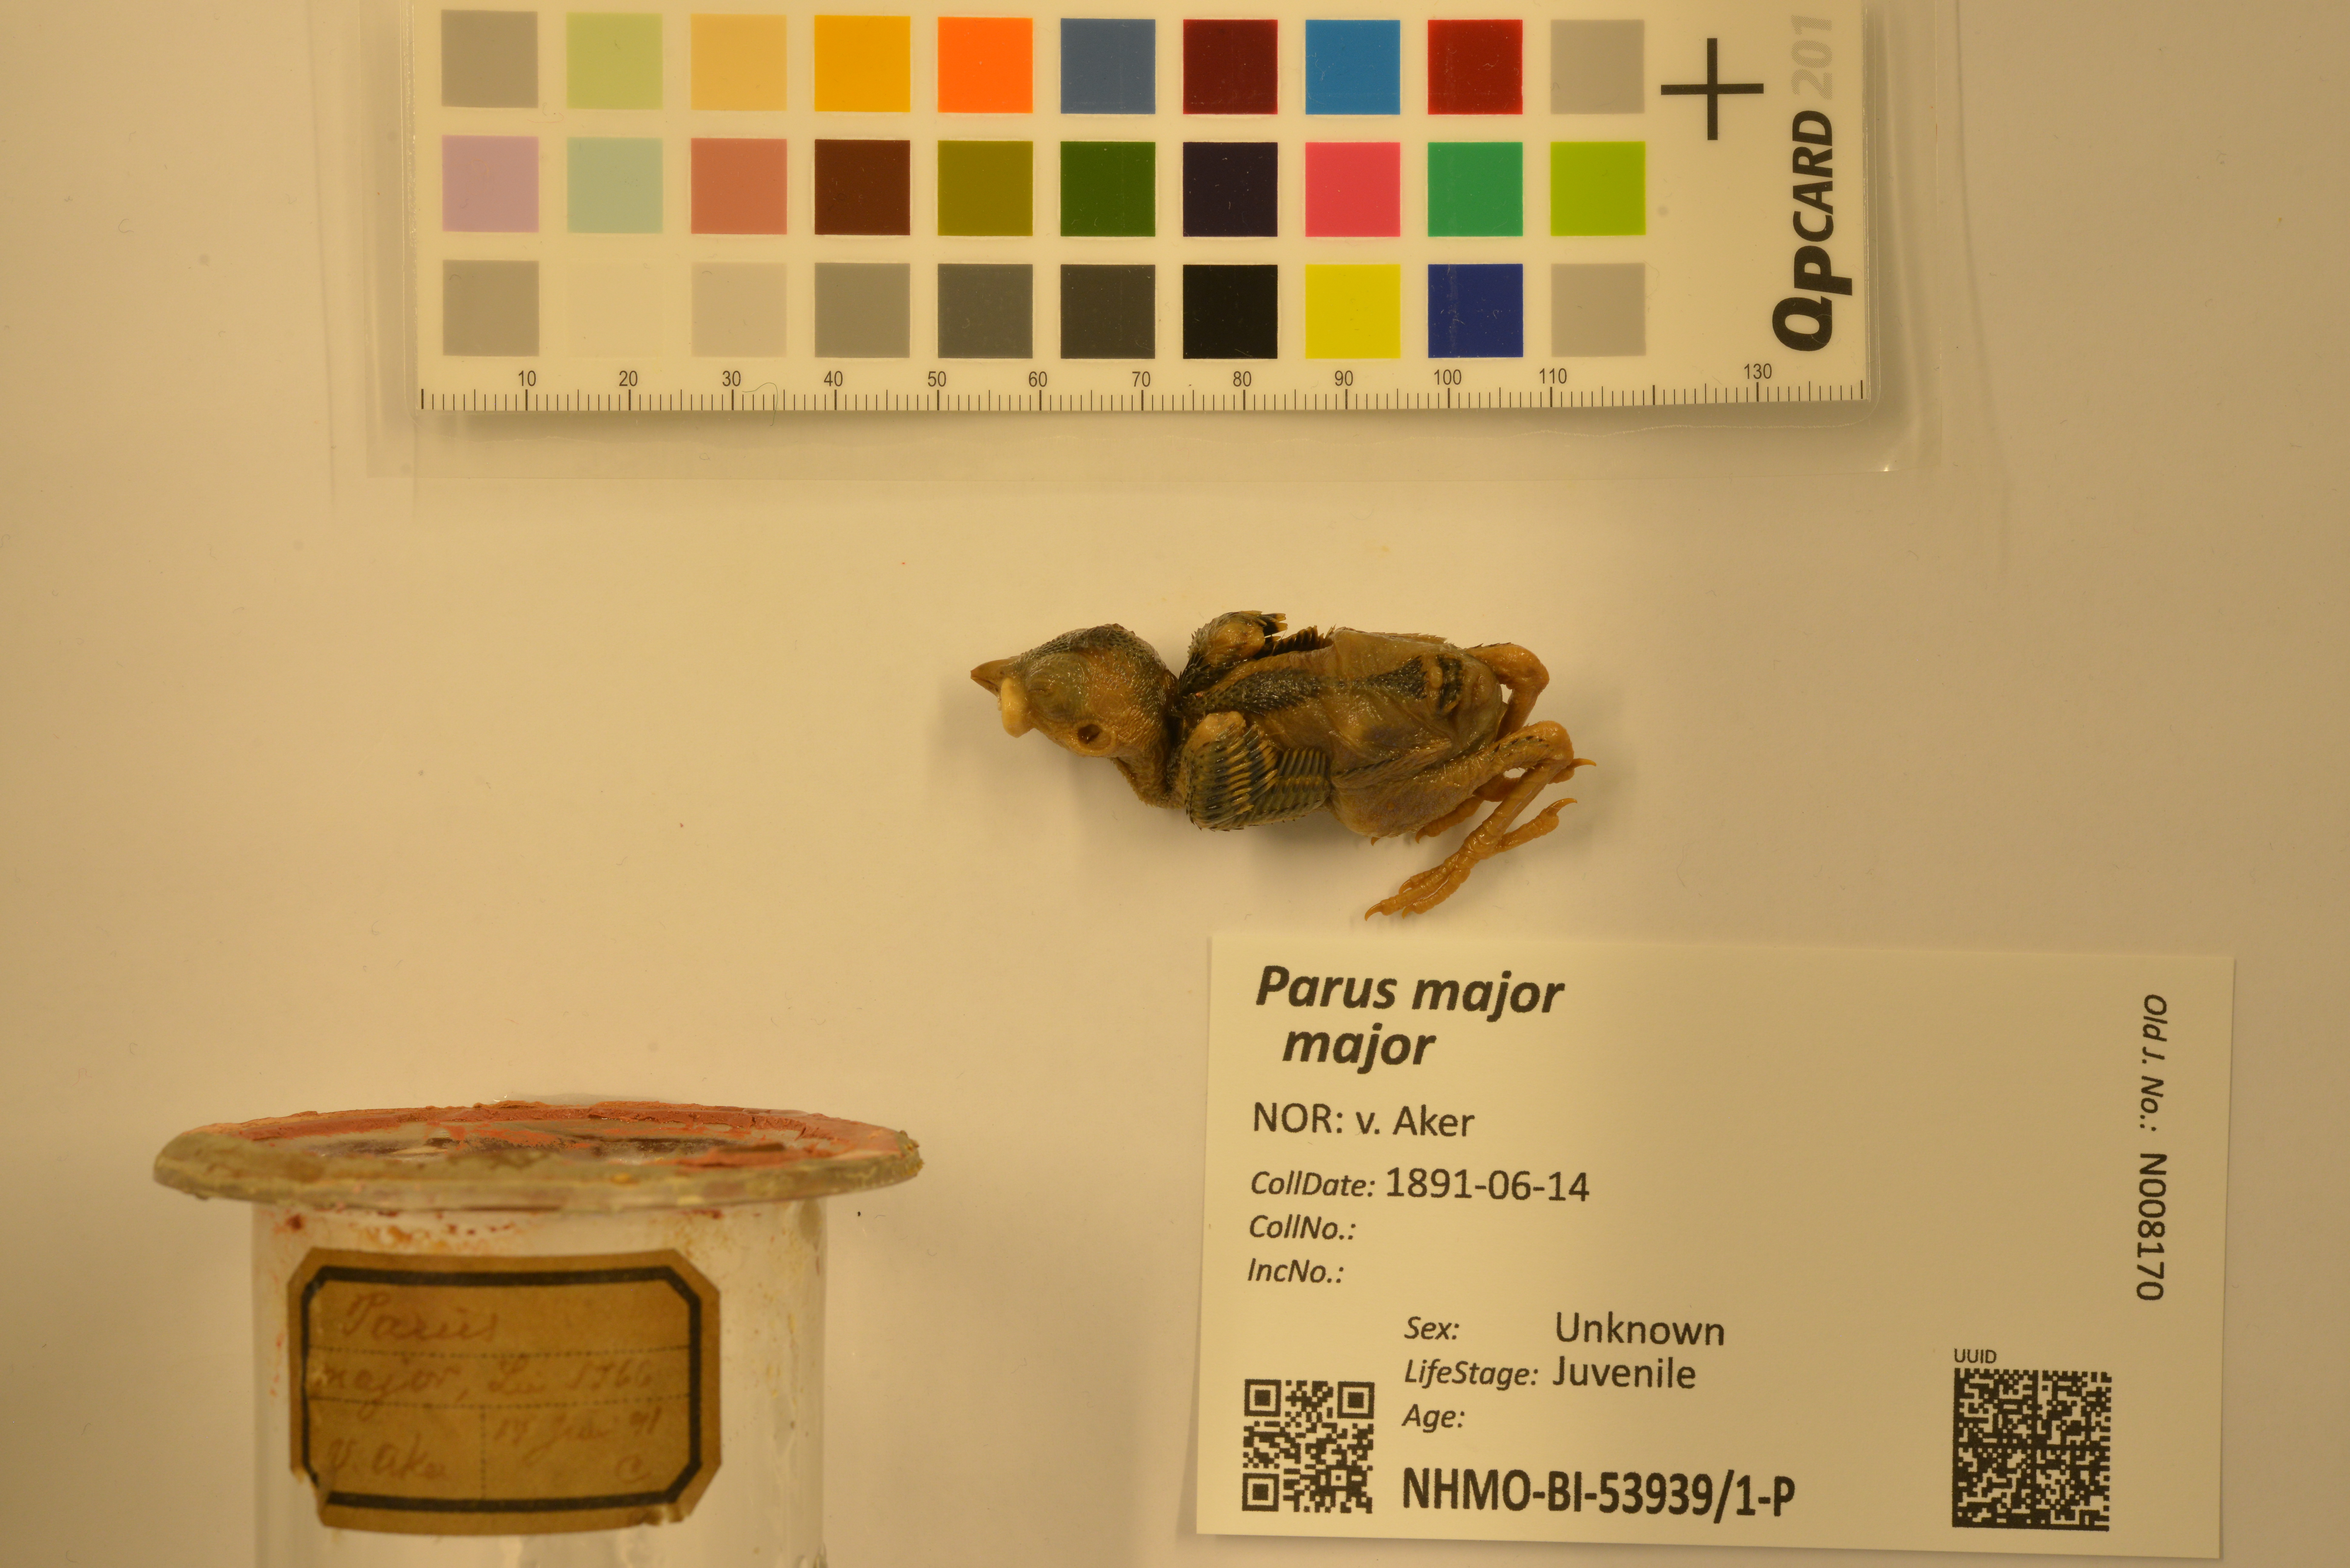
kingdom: Animalia
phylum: Chordata
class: Aves
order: Passeriformes
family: Paridae
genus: Parus
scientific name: Parus major
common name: Great tit
